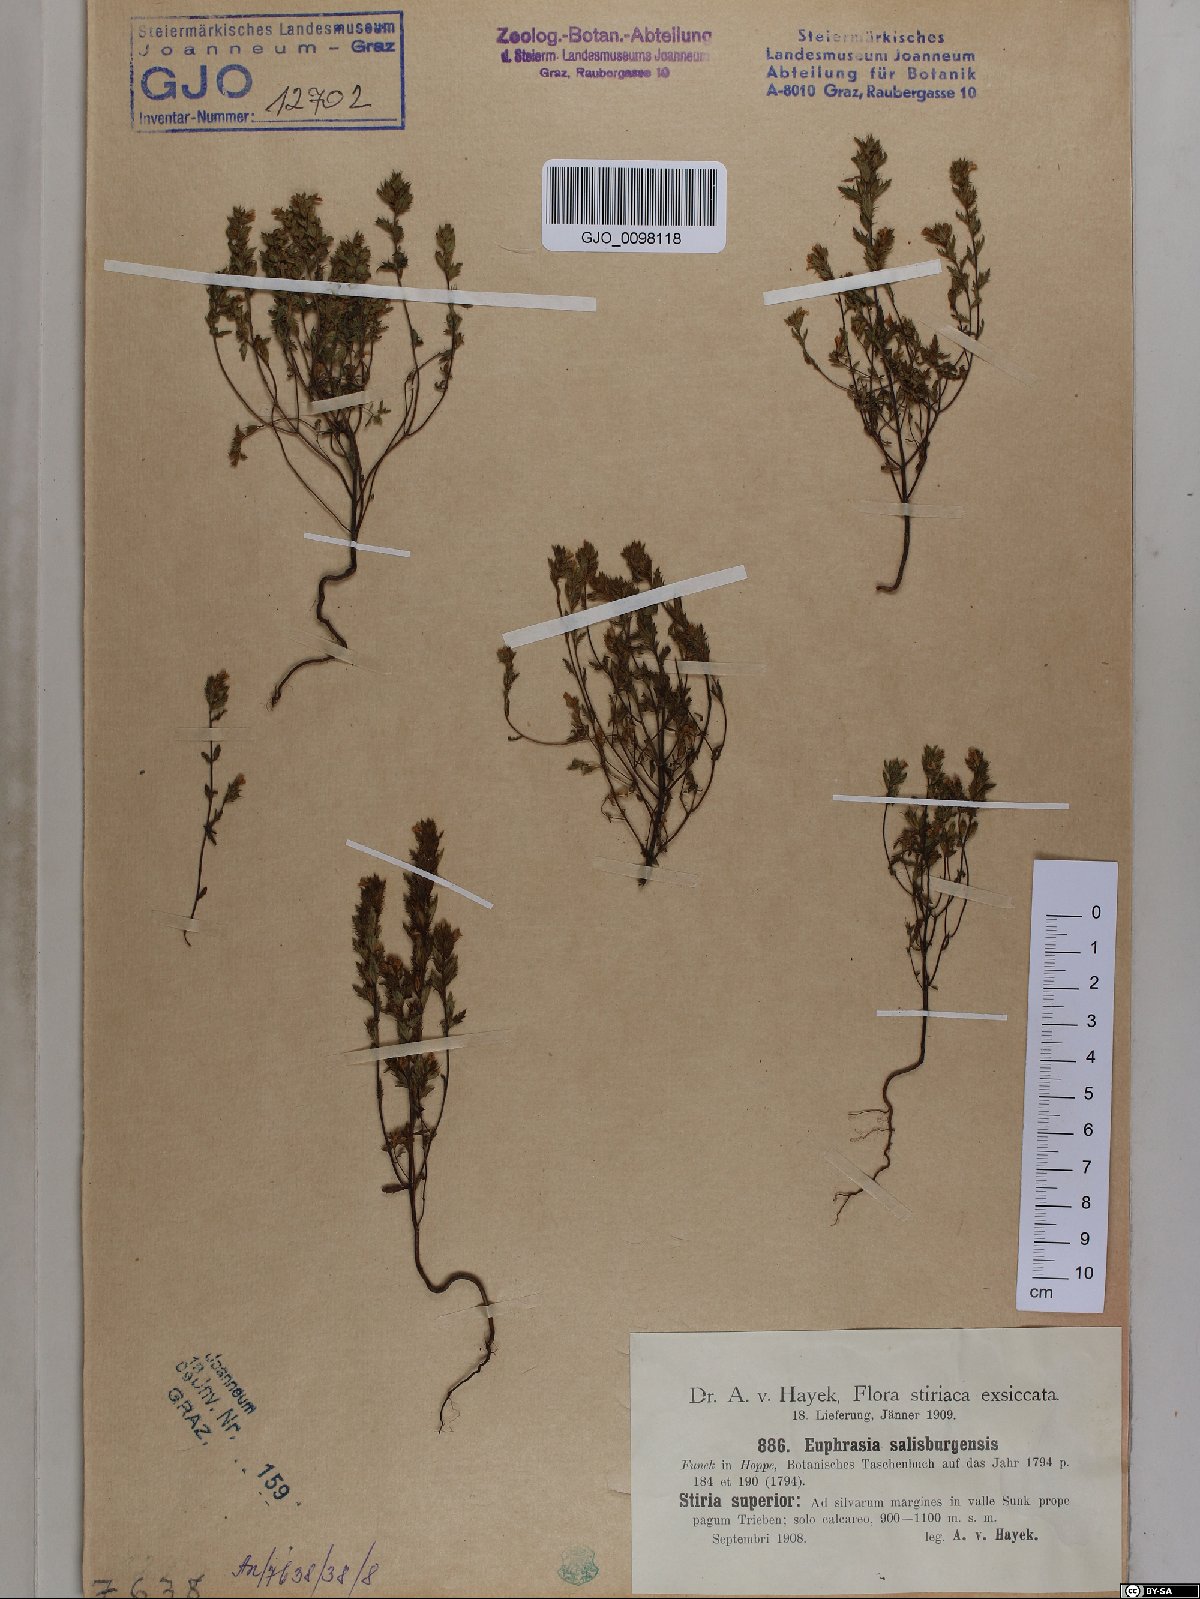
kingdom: Plantae
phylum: Tracheophyta
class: Magnoliopsida
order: Lamiales
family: Orobanchaceae
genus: Euphrasia
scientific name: Euphrasia salisburgensis
